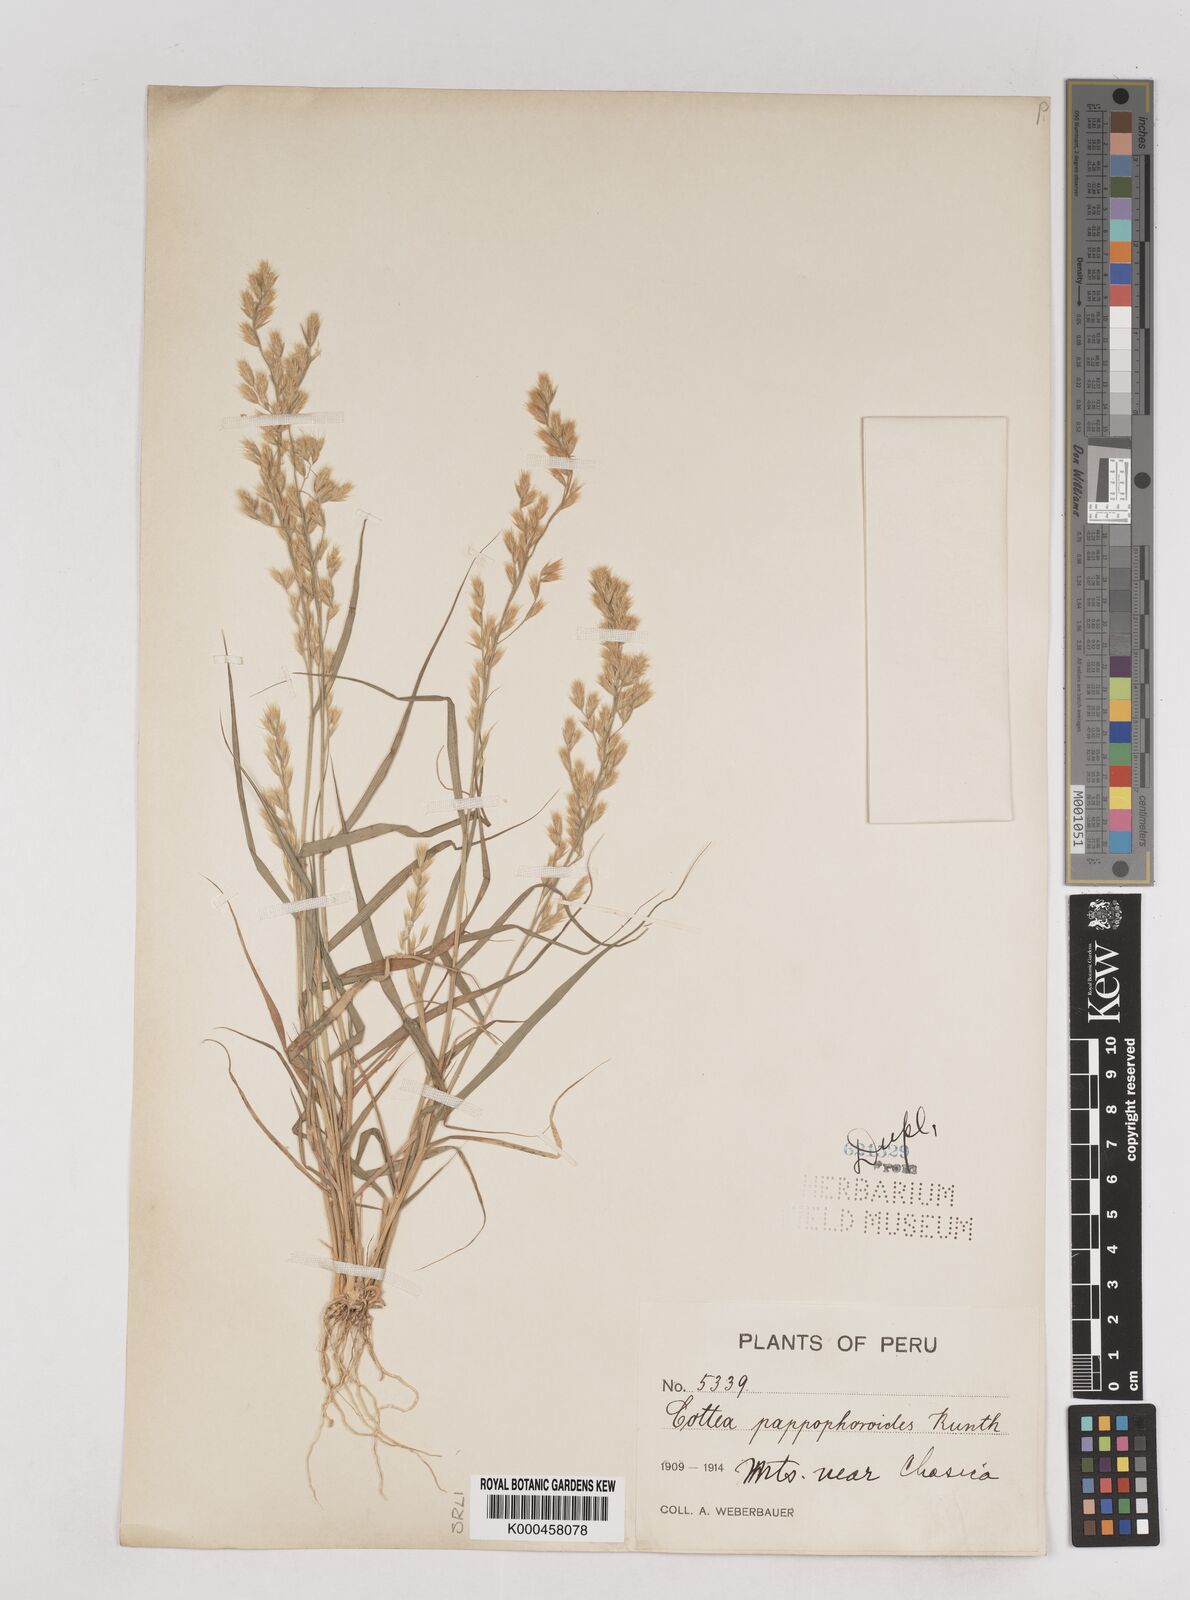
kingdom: Plantae
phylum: Tracheophyta
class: Liliopsida
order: Poales
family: Poaceae
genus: Cottea
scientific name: Cottea
